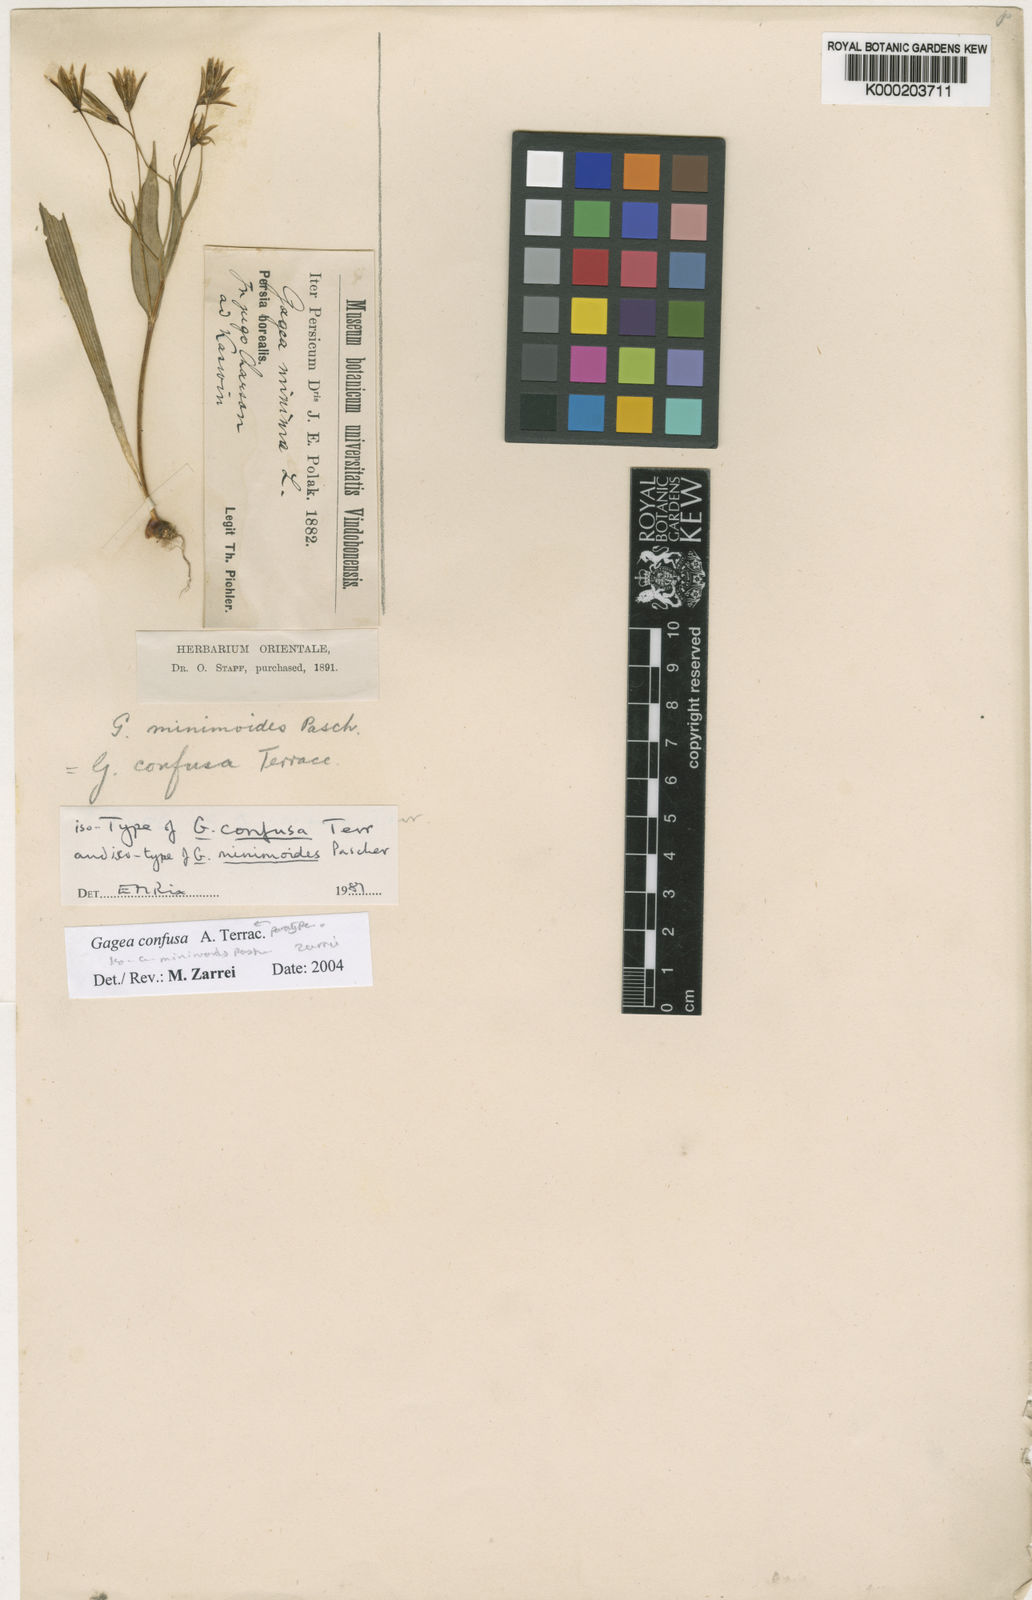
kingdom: Plantae
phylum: Tracheophyta
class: Liliopsida
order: Liliales
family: Liliaceae
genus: Gagea
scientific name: Gagea confusa
